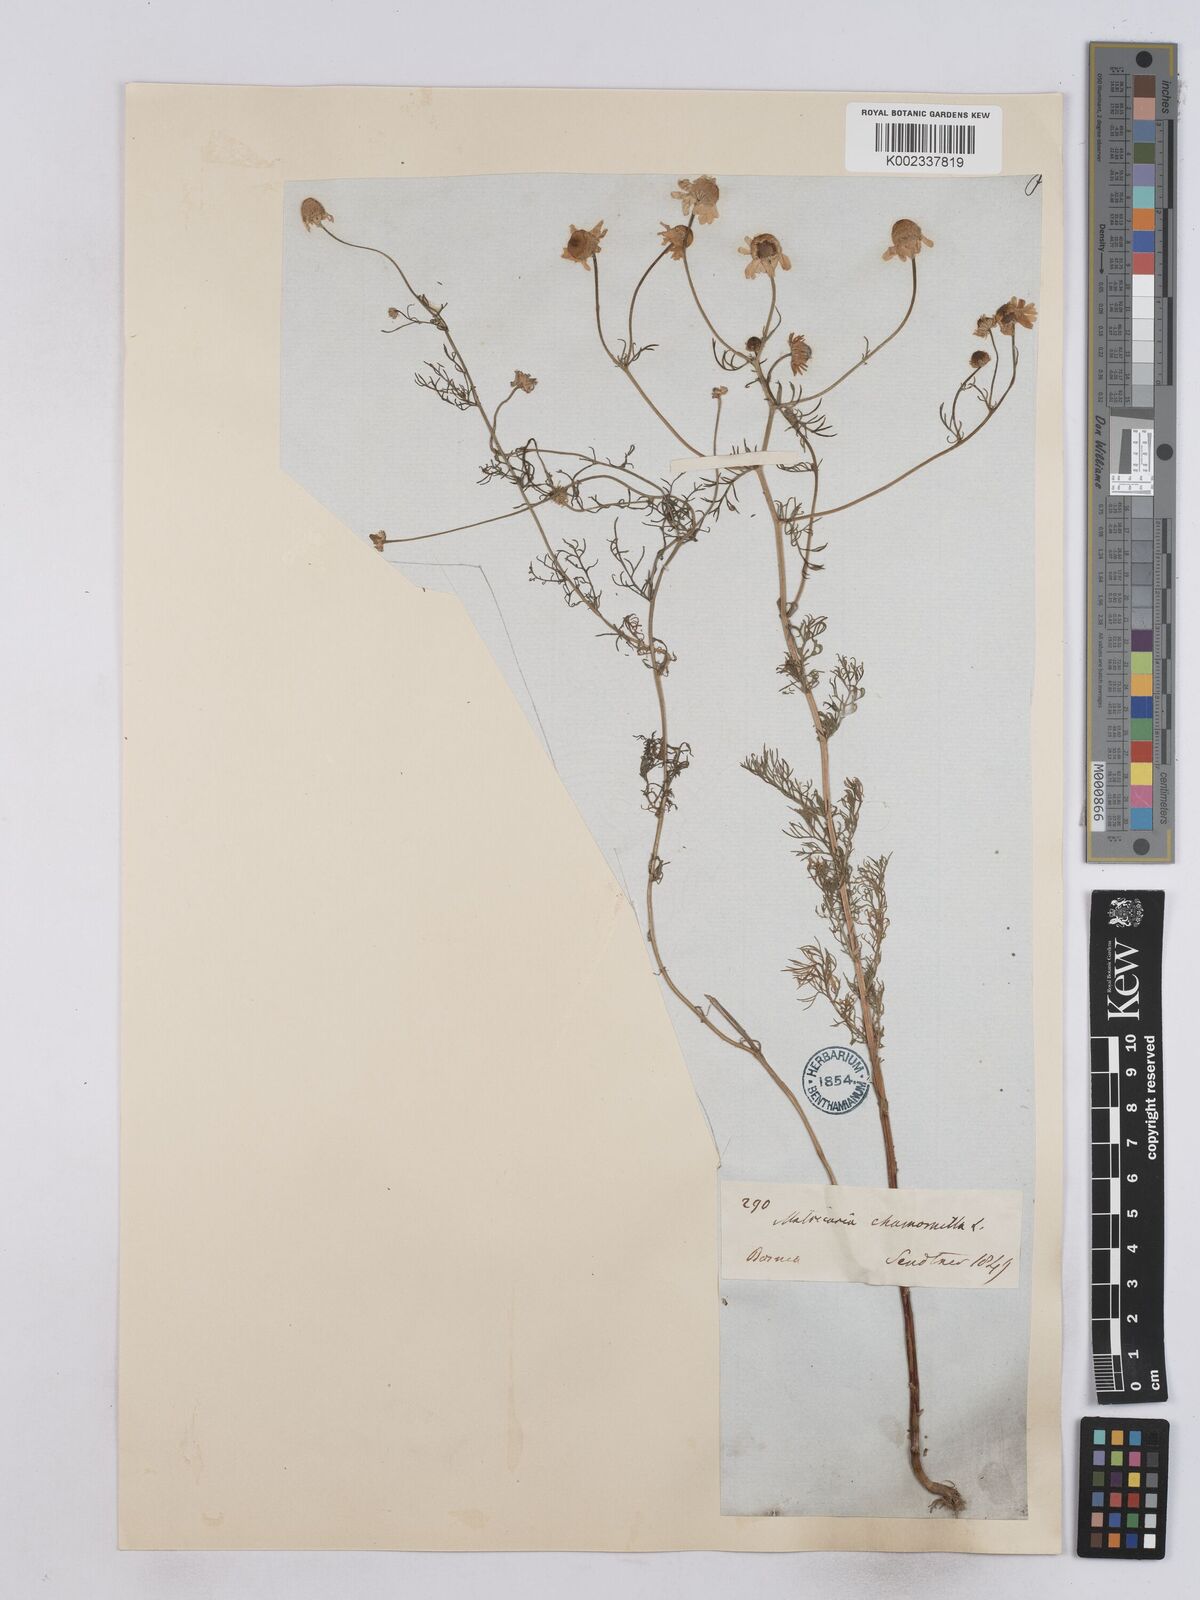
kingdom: Plantae
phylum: Tracheophyta
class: Magnoliopsida
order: Asterales
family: Asteraceae
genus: Matricaria
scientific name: Matricaria chamomilla
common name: Scented mayweed
